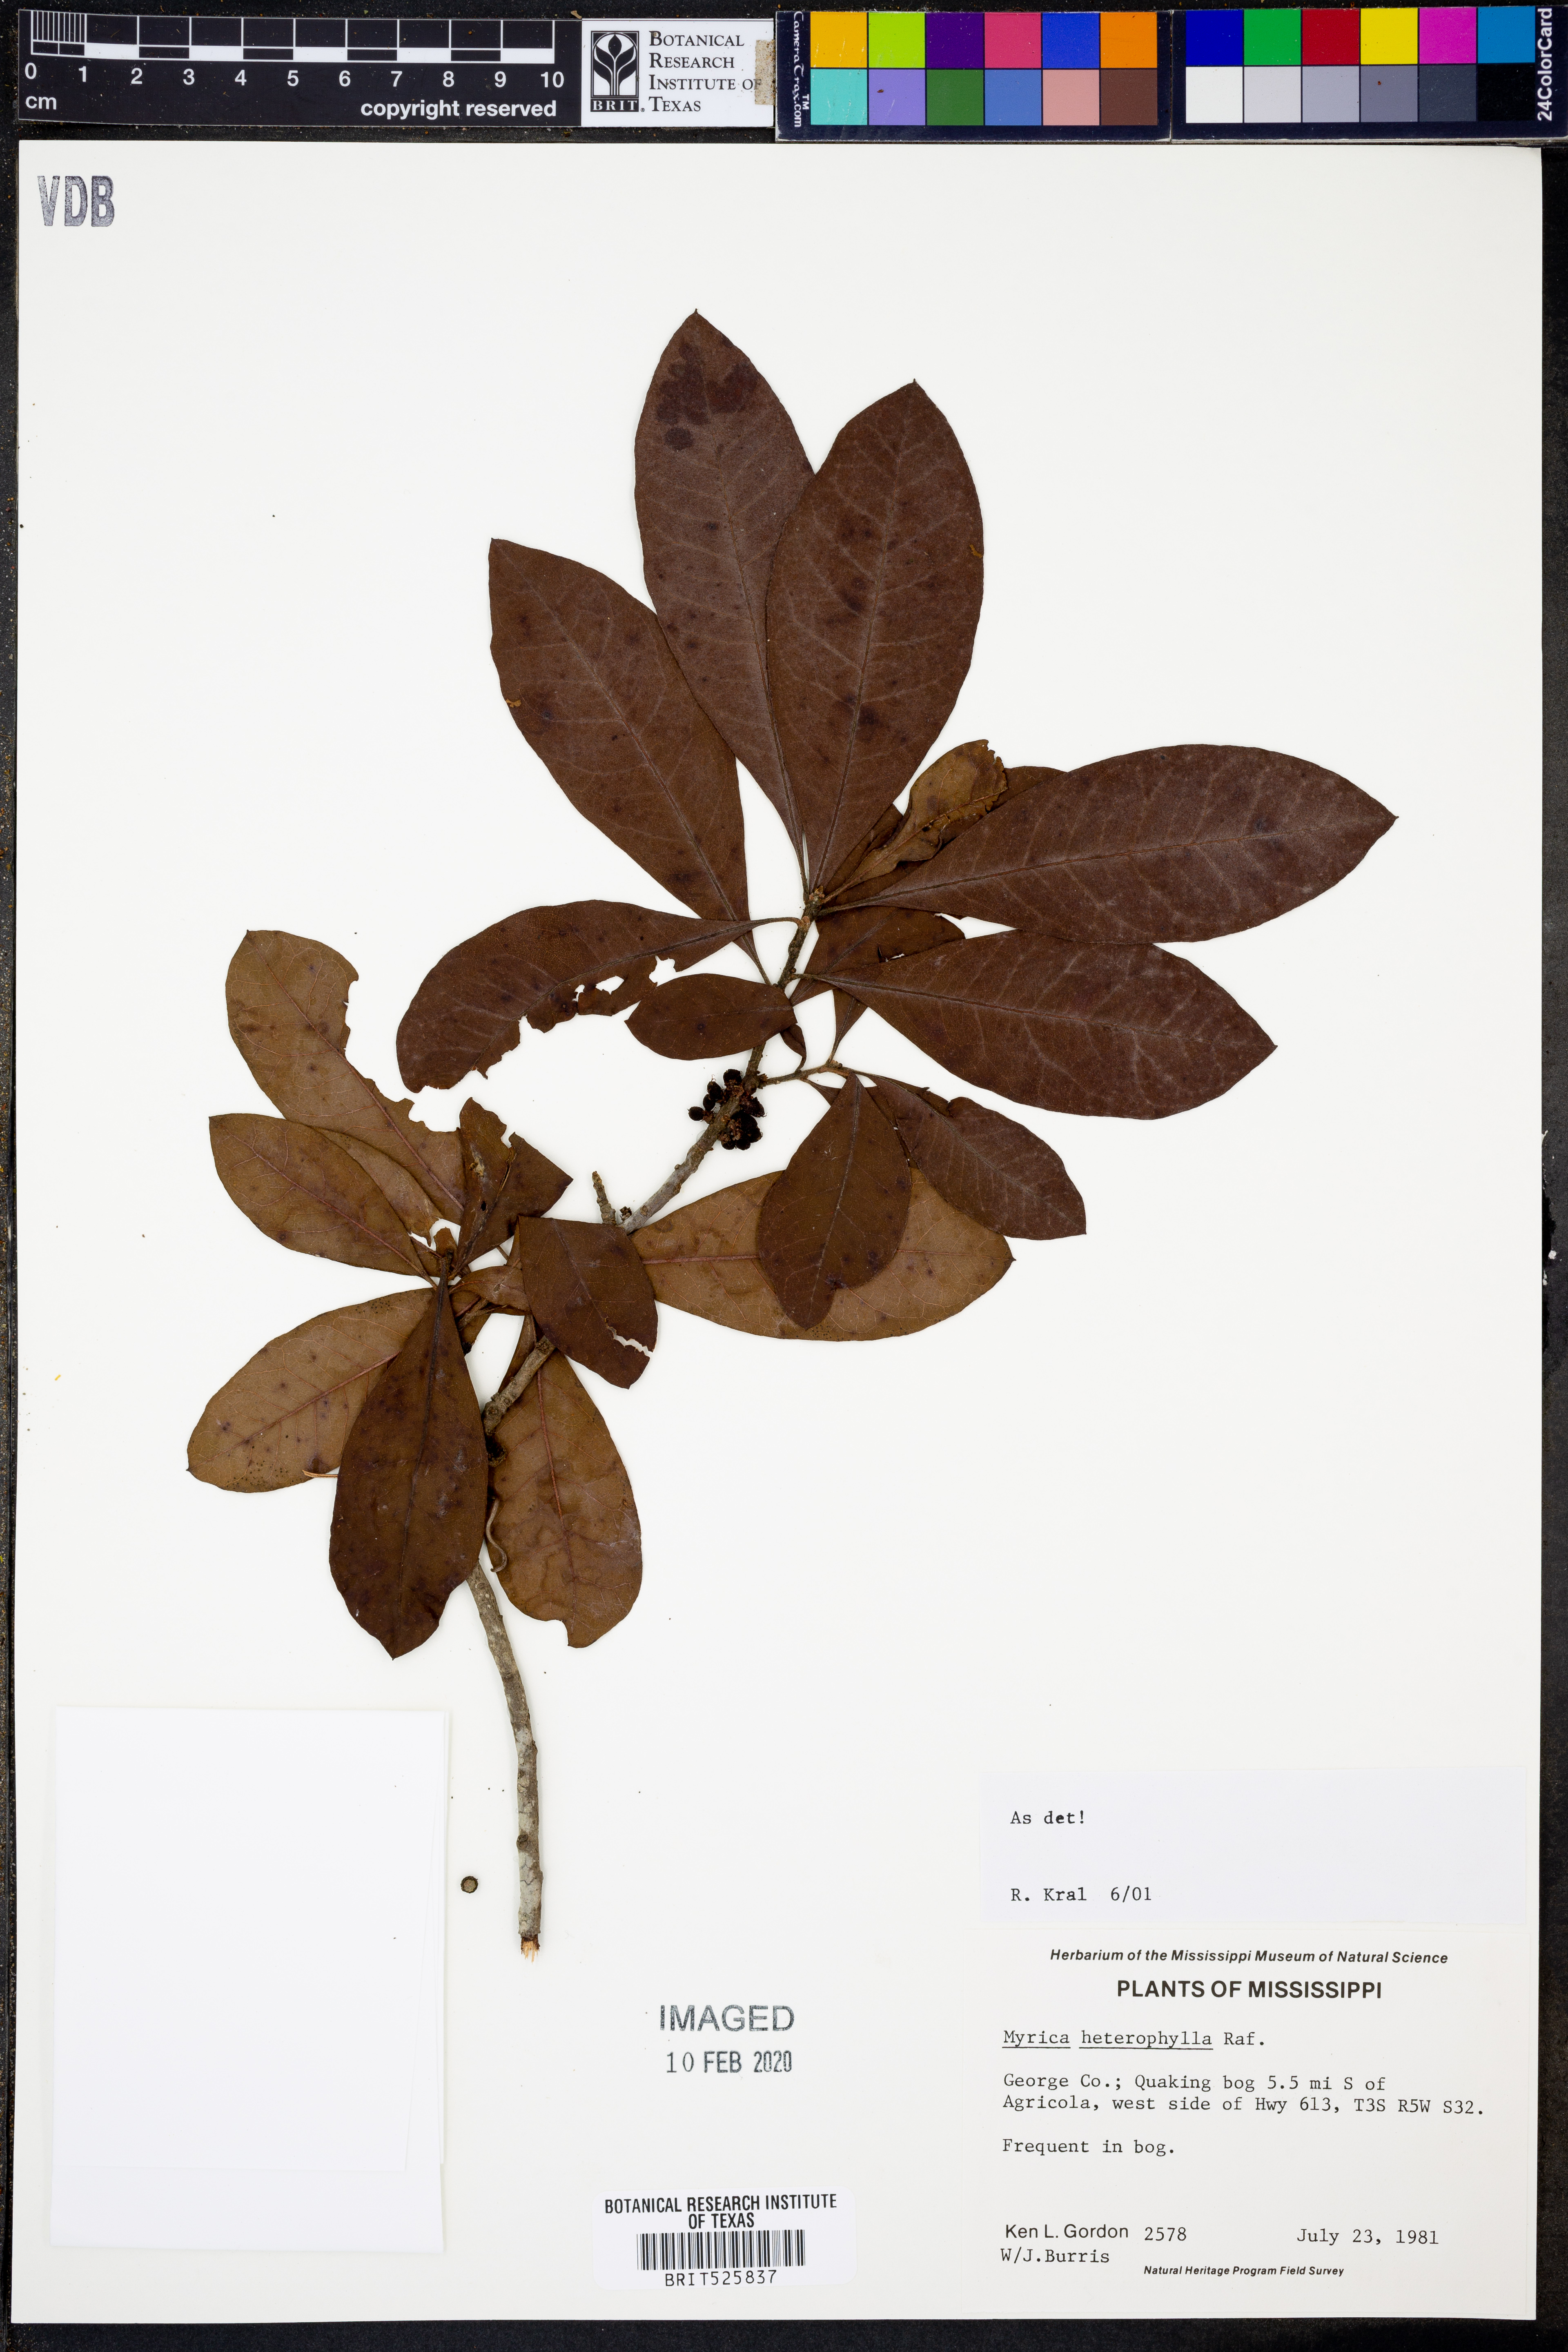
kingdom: Plantae
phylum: Tracheophyta
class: Magnoliopsida
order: Fagales
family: Myricaceae
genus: Morella
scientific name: Morella caroliniensis
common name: Evergreen bayberry
